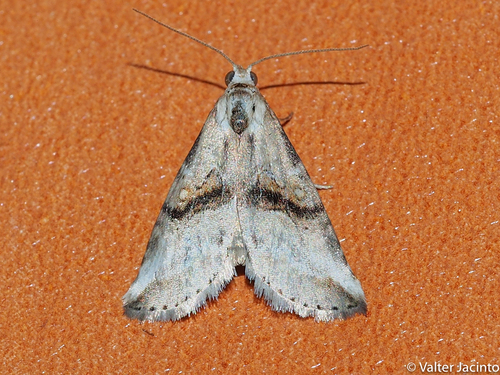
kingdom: Animalia
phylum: Arthropoda
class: Insecta
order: Lepidoptera
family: Erebidae
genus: Zebeeba
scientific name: Zebeeba falsalis
